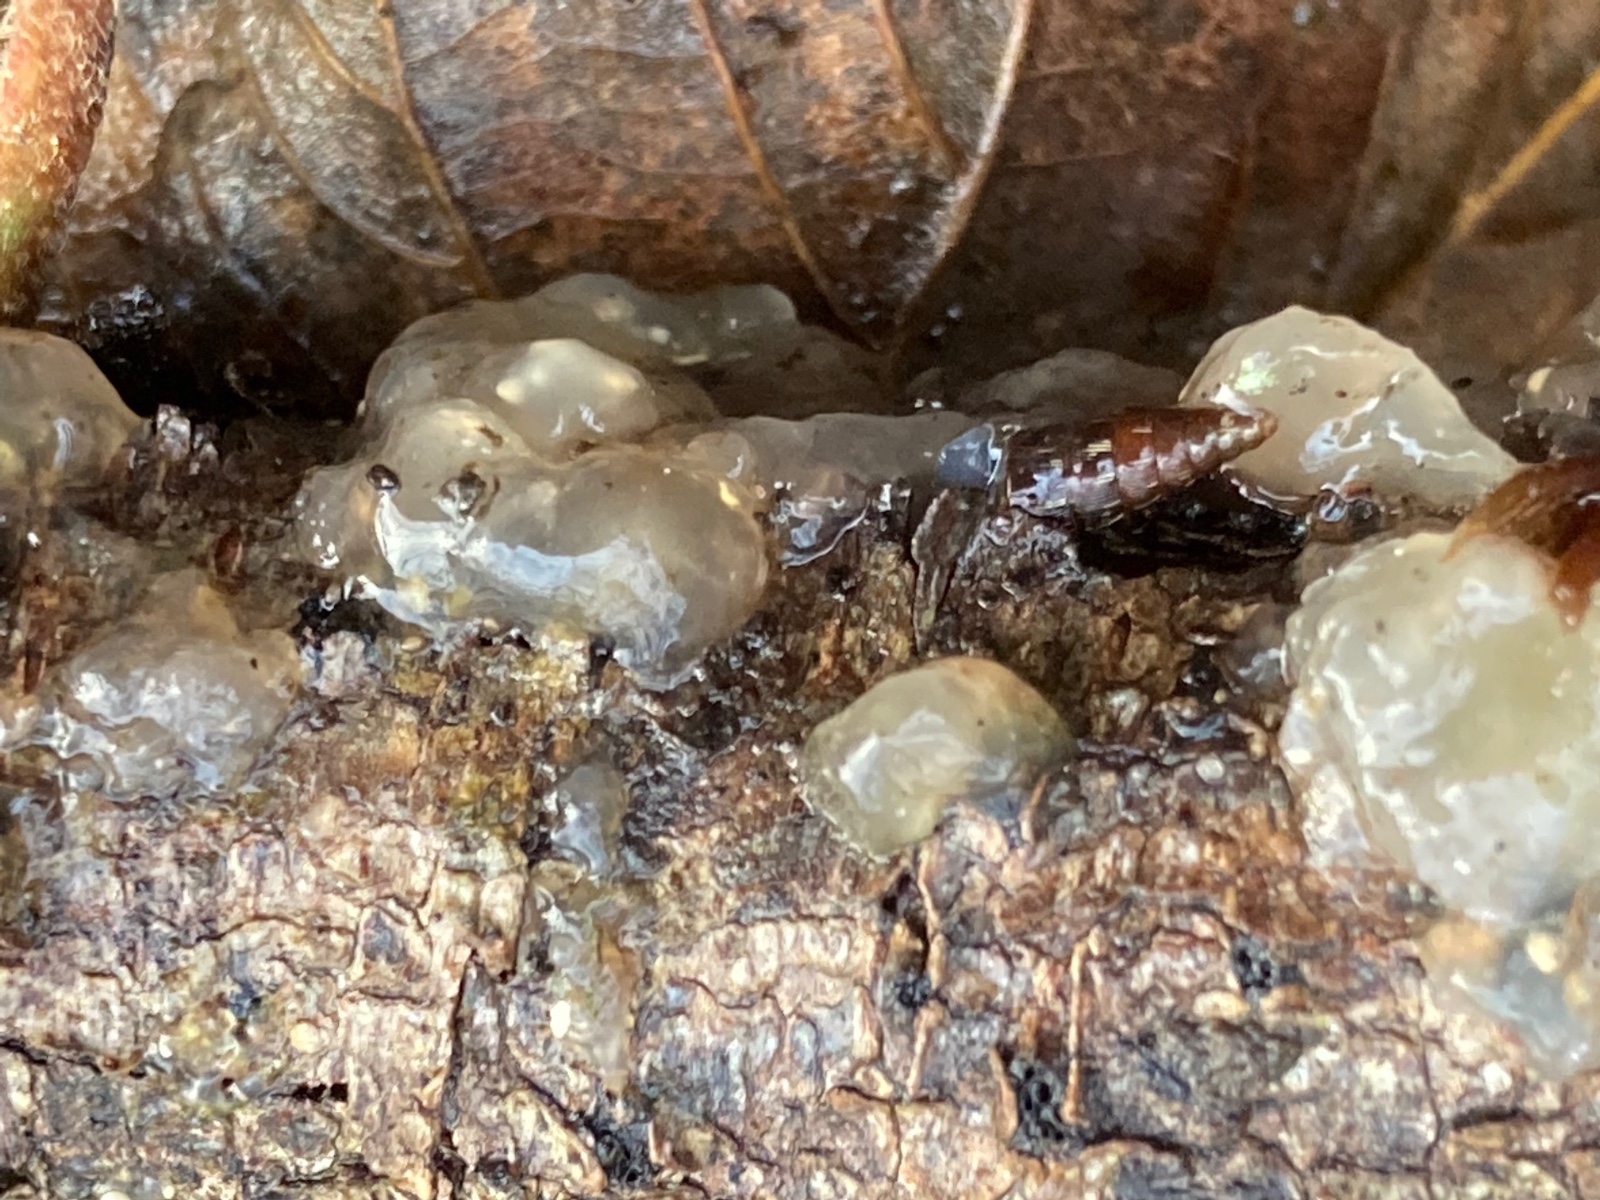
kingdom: Fungi
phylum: Basidiomycota
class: Agaricomycetes
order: Auriculariales
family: Hyaloriaceae
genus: Myxarium
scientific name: Myxarium nucleatum
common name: klar bævretop
